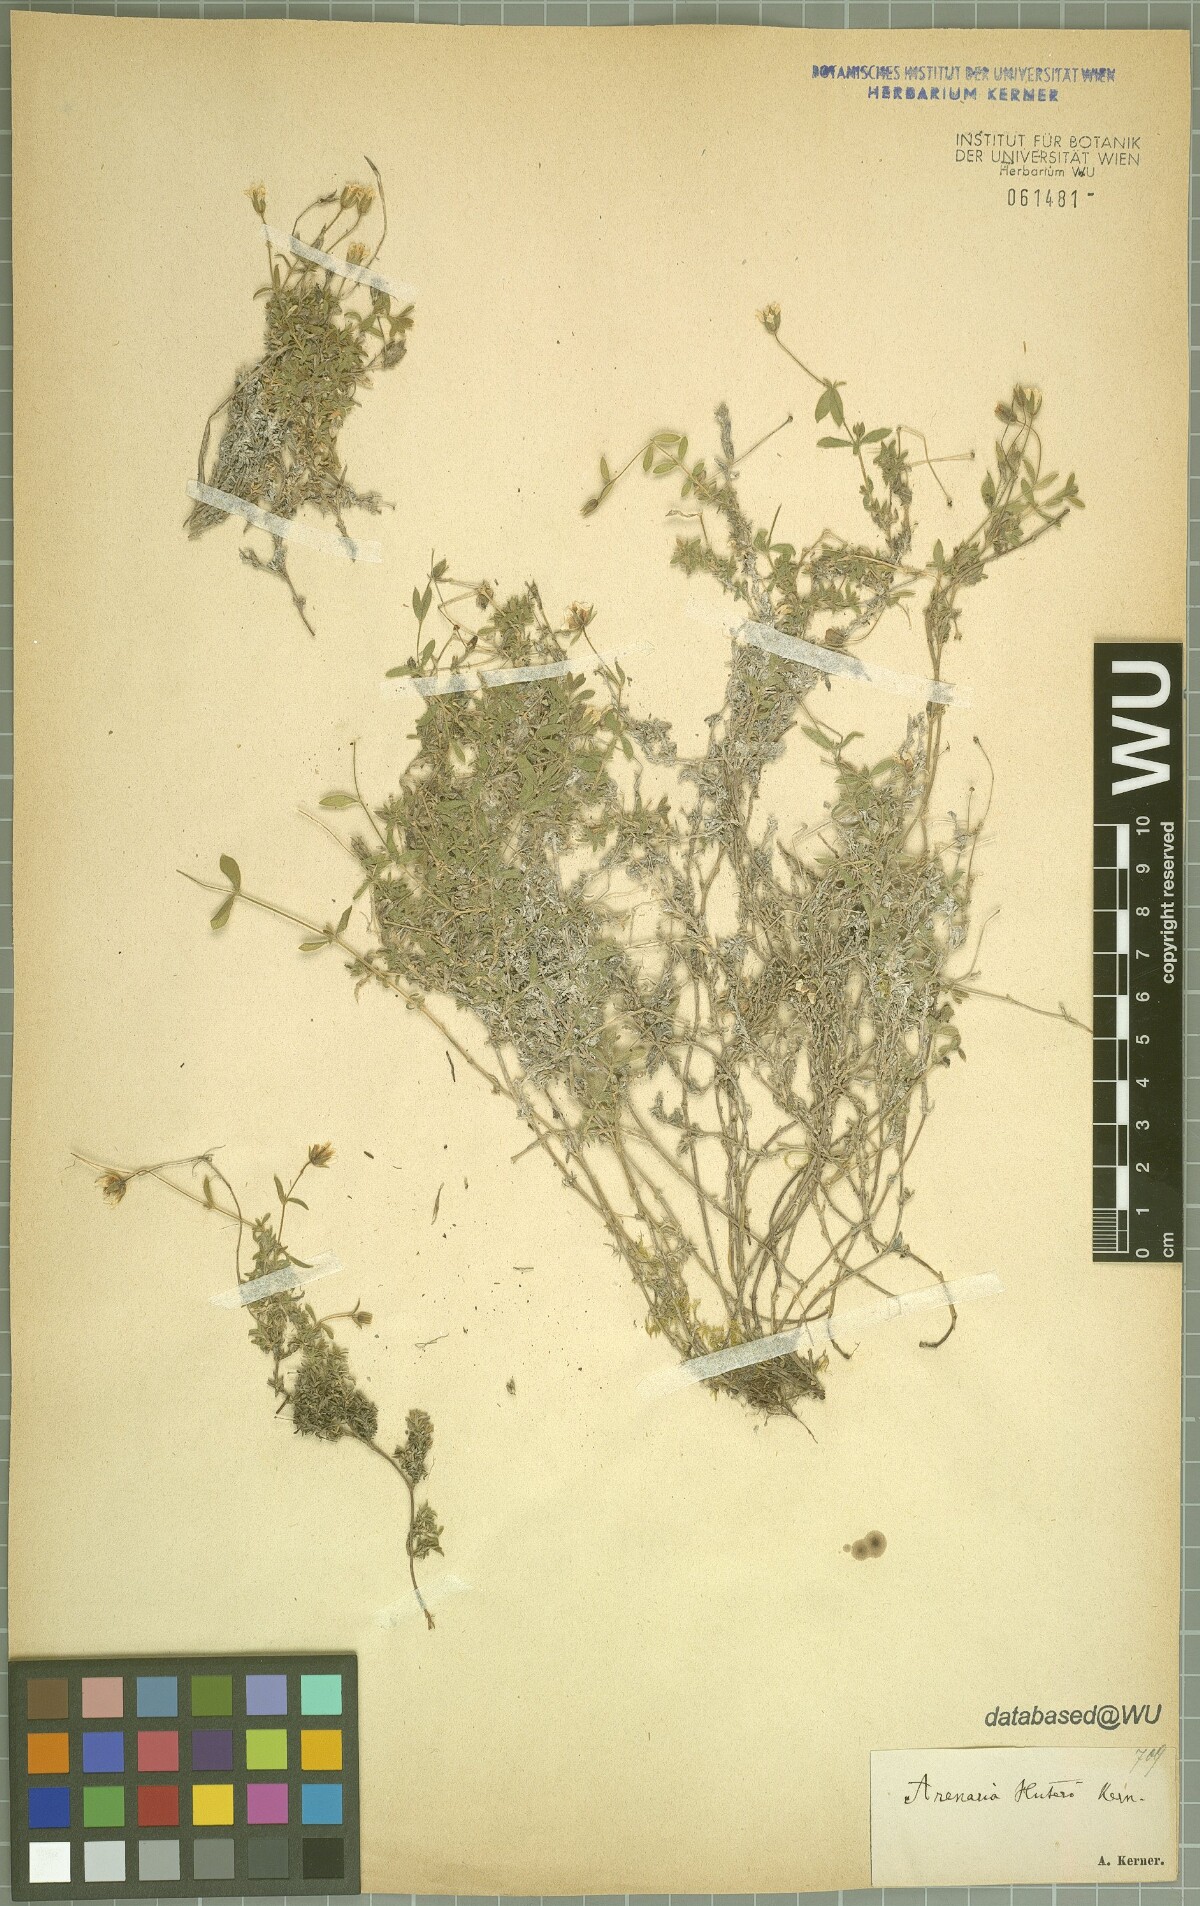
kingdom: Plantae
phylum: Tracheophyta
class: Magnoliopsida
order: Caryophyllales
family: Caryophyllaceae
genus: Arenaria
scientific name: Arenaria huteri
